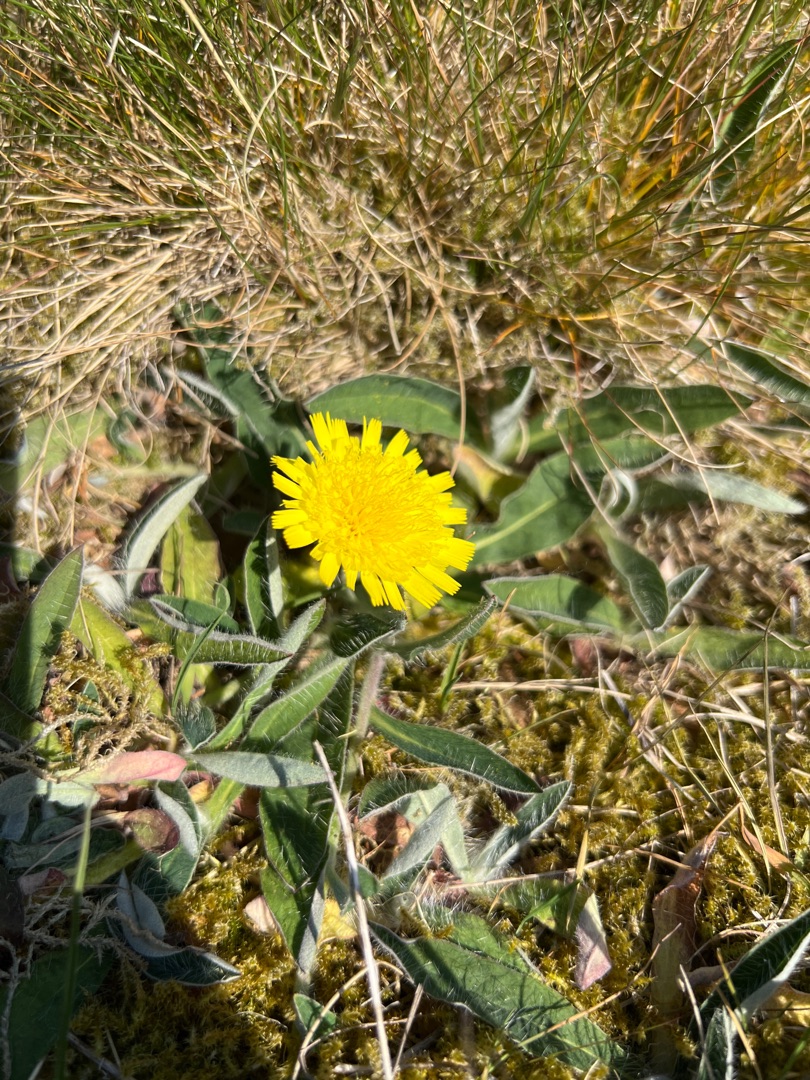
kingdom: Plantae
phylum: Tracheophyta
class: Magnoliopsida
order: Asterales
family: Asteraceae
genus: Pilosella
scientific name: Pilosella officinarum
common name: Håret høgeurt
